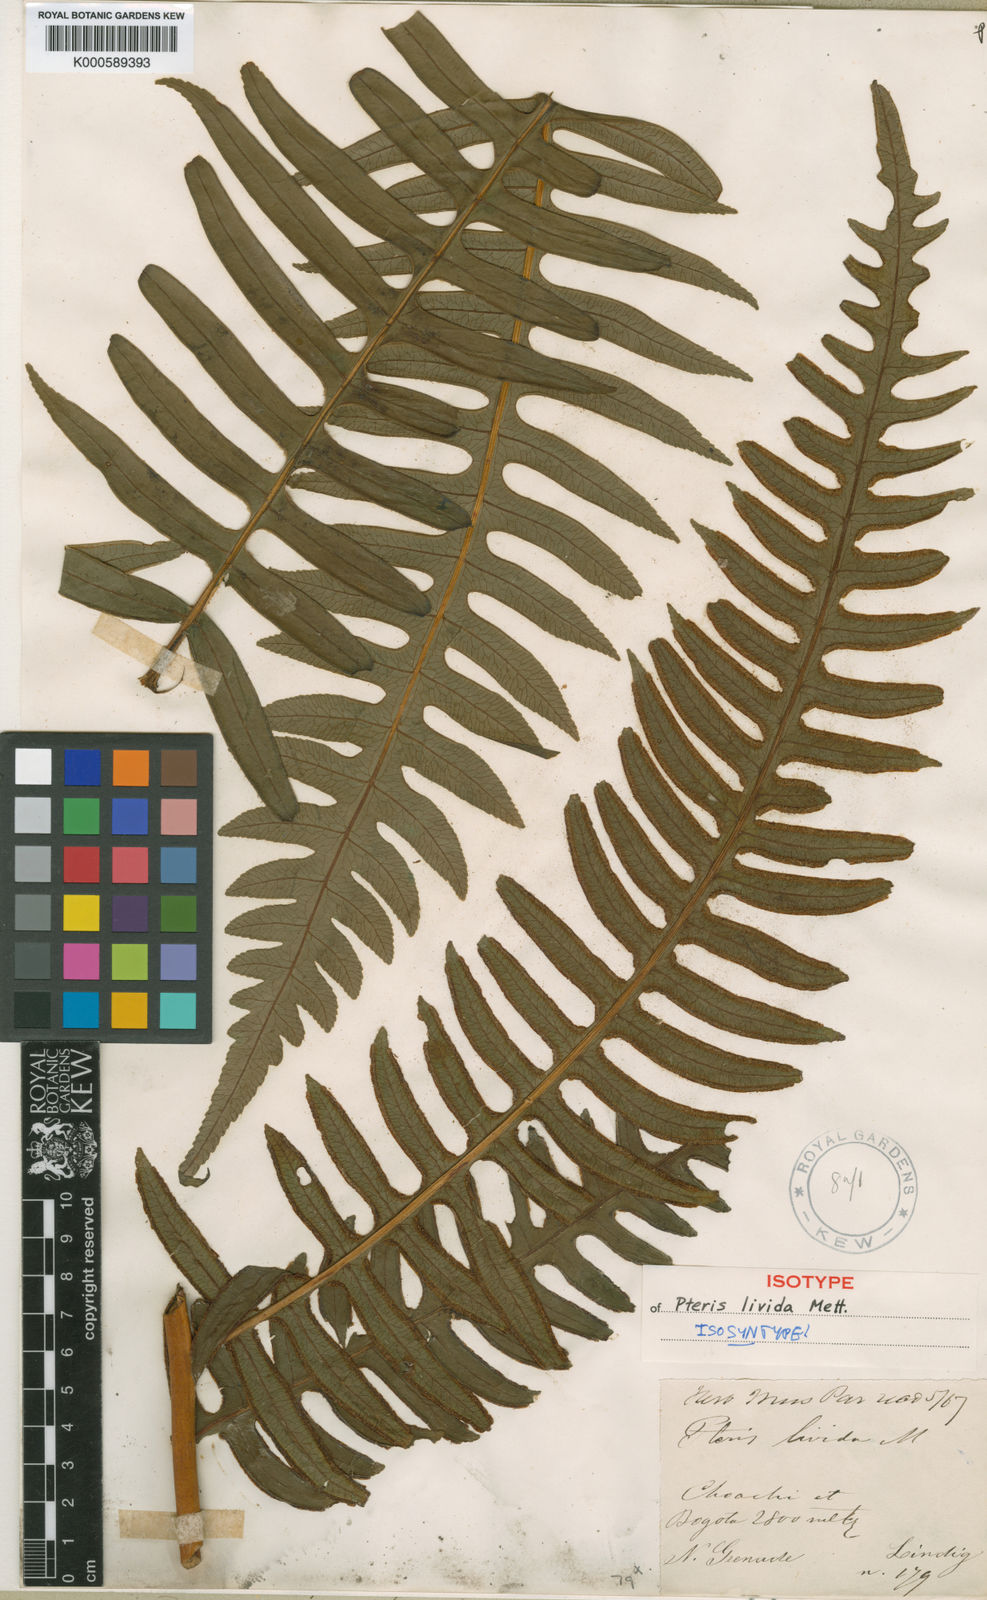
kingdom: Plantae
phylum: Tracheophyta
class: Polypodiopsida
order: Polypodiales
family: Pteridaceae
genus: Pteris
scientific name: Pteris livida
